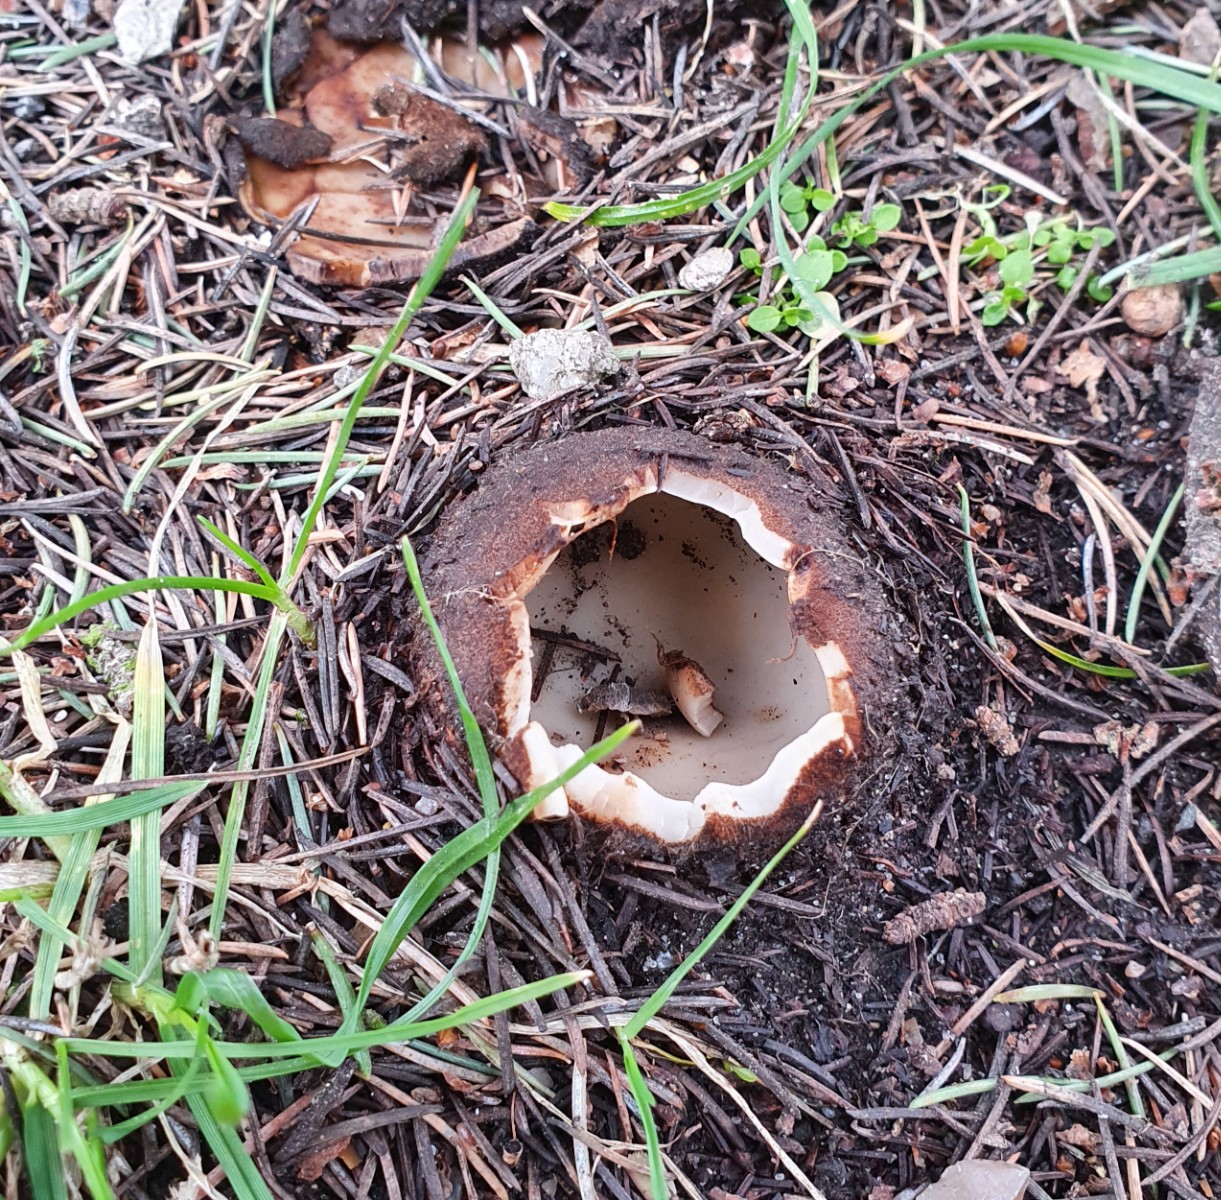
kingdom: Fungi
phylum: Ascomycota
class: Pezizomycetes
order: Pezizales
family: Pyronemataceae
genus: Geopora
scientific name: Geopora sumneriana
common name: vår-jordbæger
